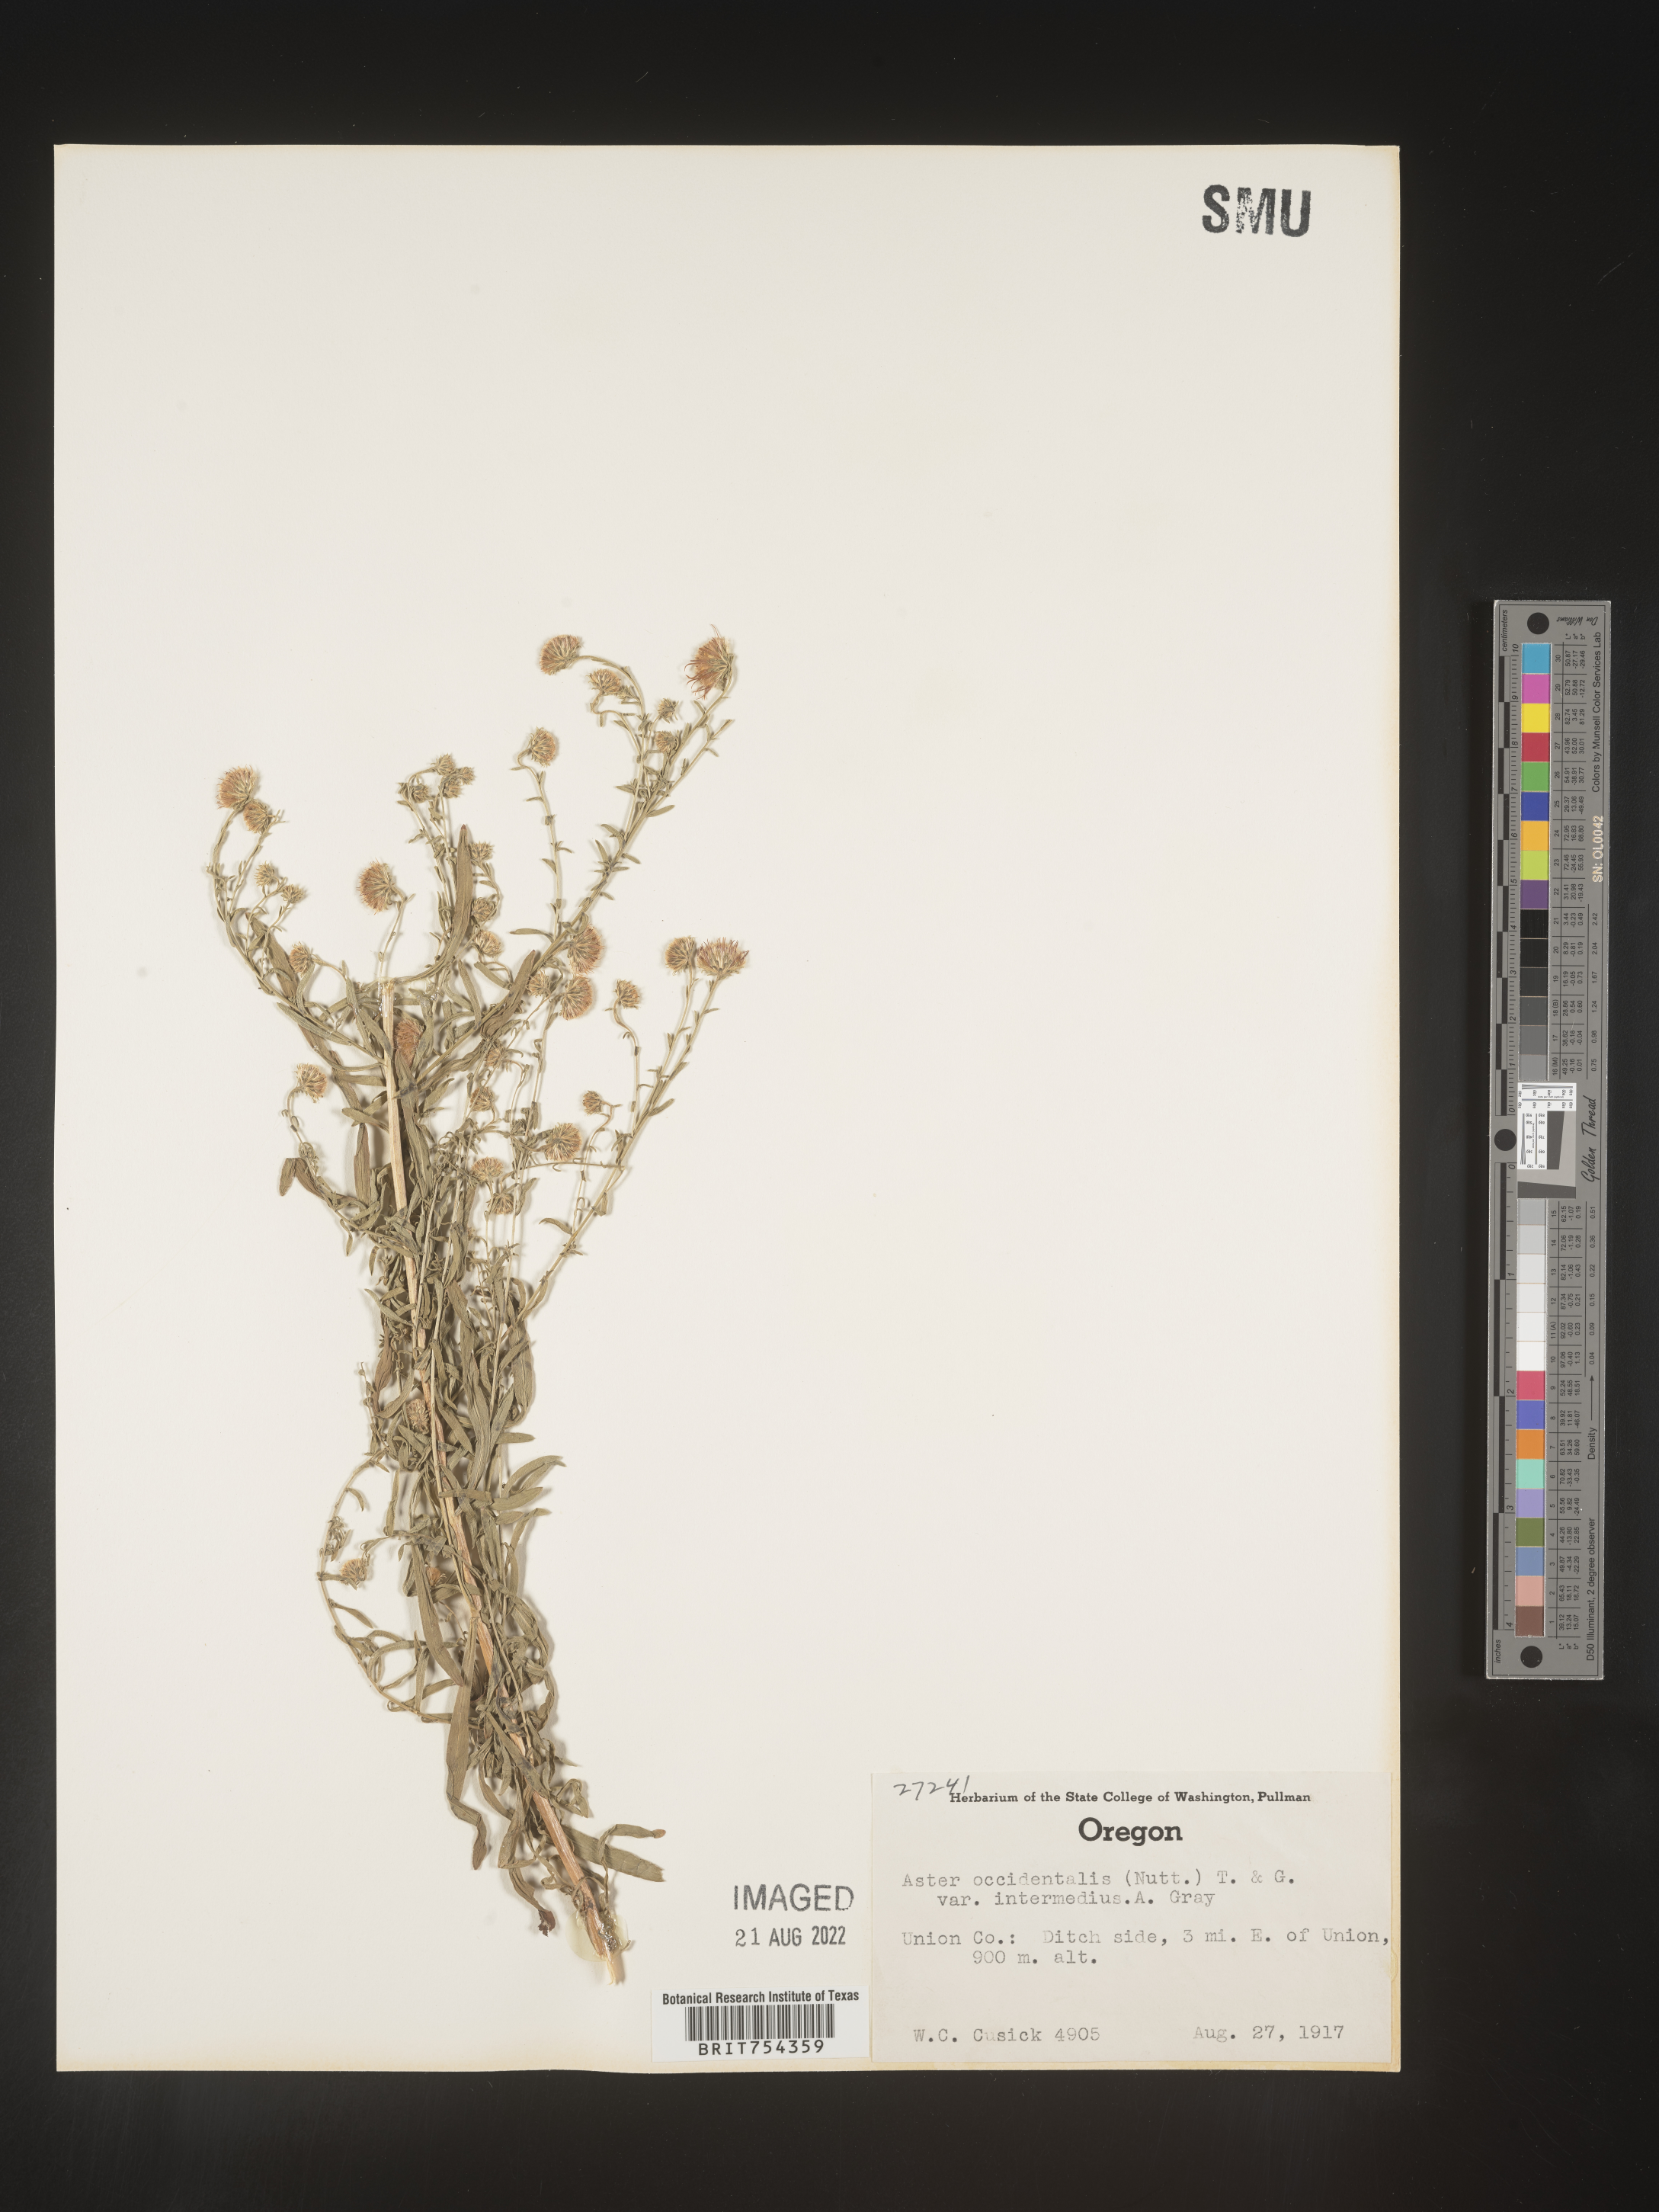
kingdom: Plantae
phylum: Tracheophyta
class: Magnoliopsida
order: Asterales
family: Asteraceae
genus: Symphyotrichum
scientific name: Symphyotrichum spathulatum
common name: Western mountain aster
